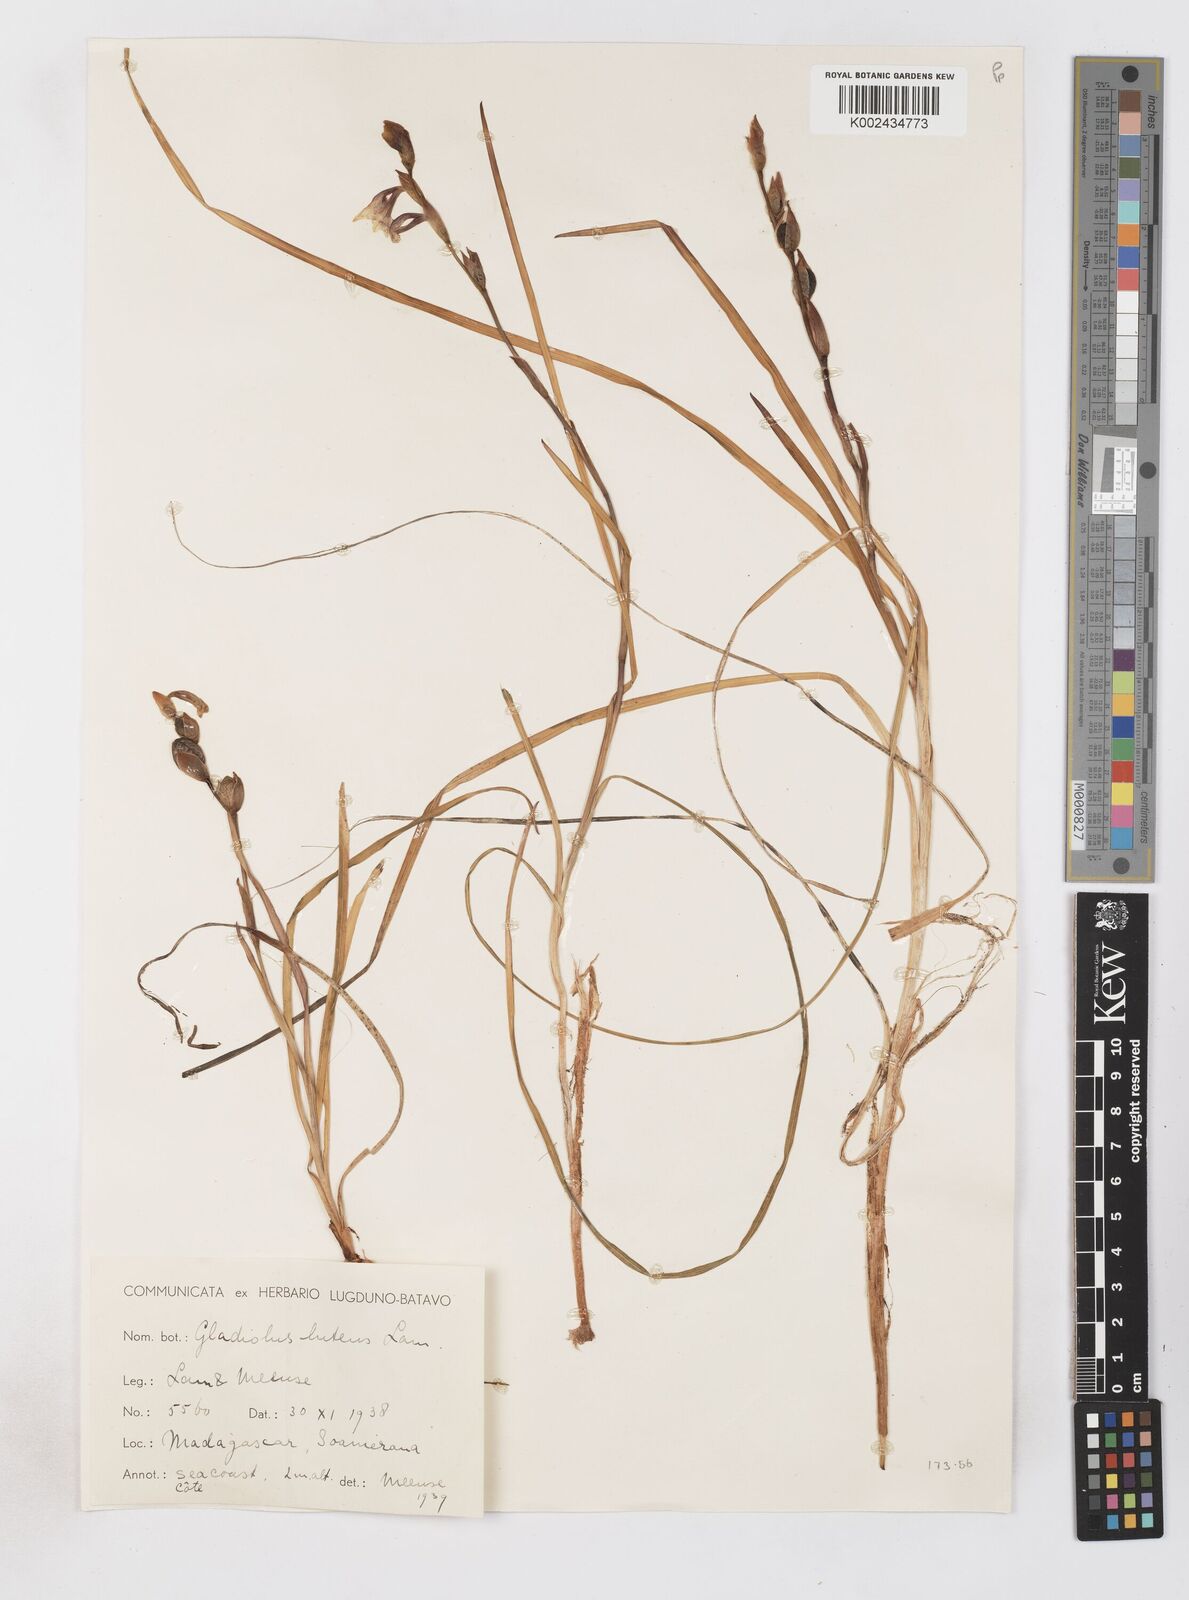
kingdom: Plantae
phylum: Tracheophyta
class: Liliopsida
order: Asparagales
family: Iridaceae
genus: Gladiolus
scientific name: Gladiolus luteus
